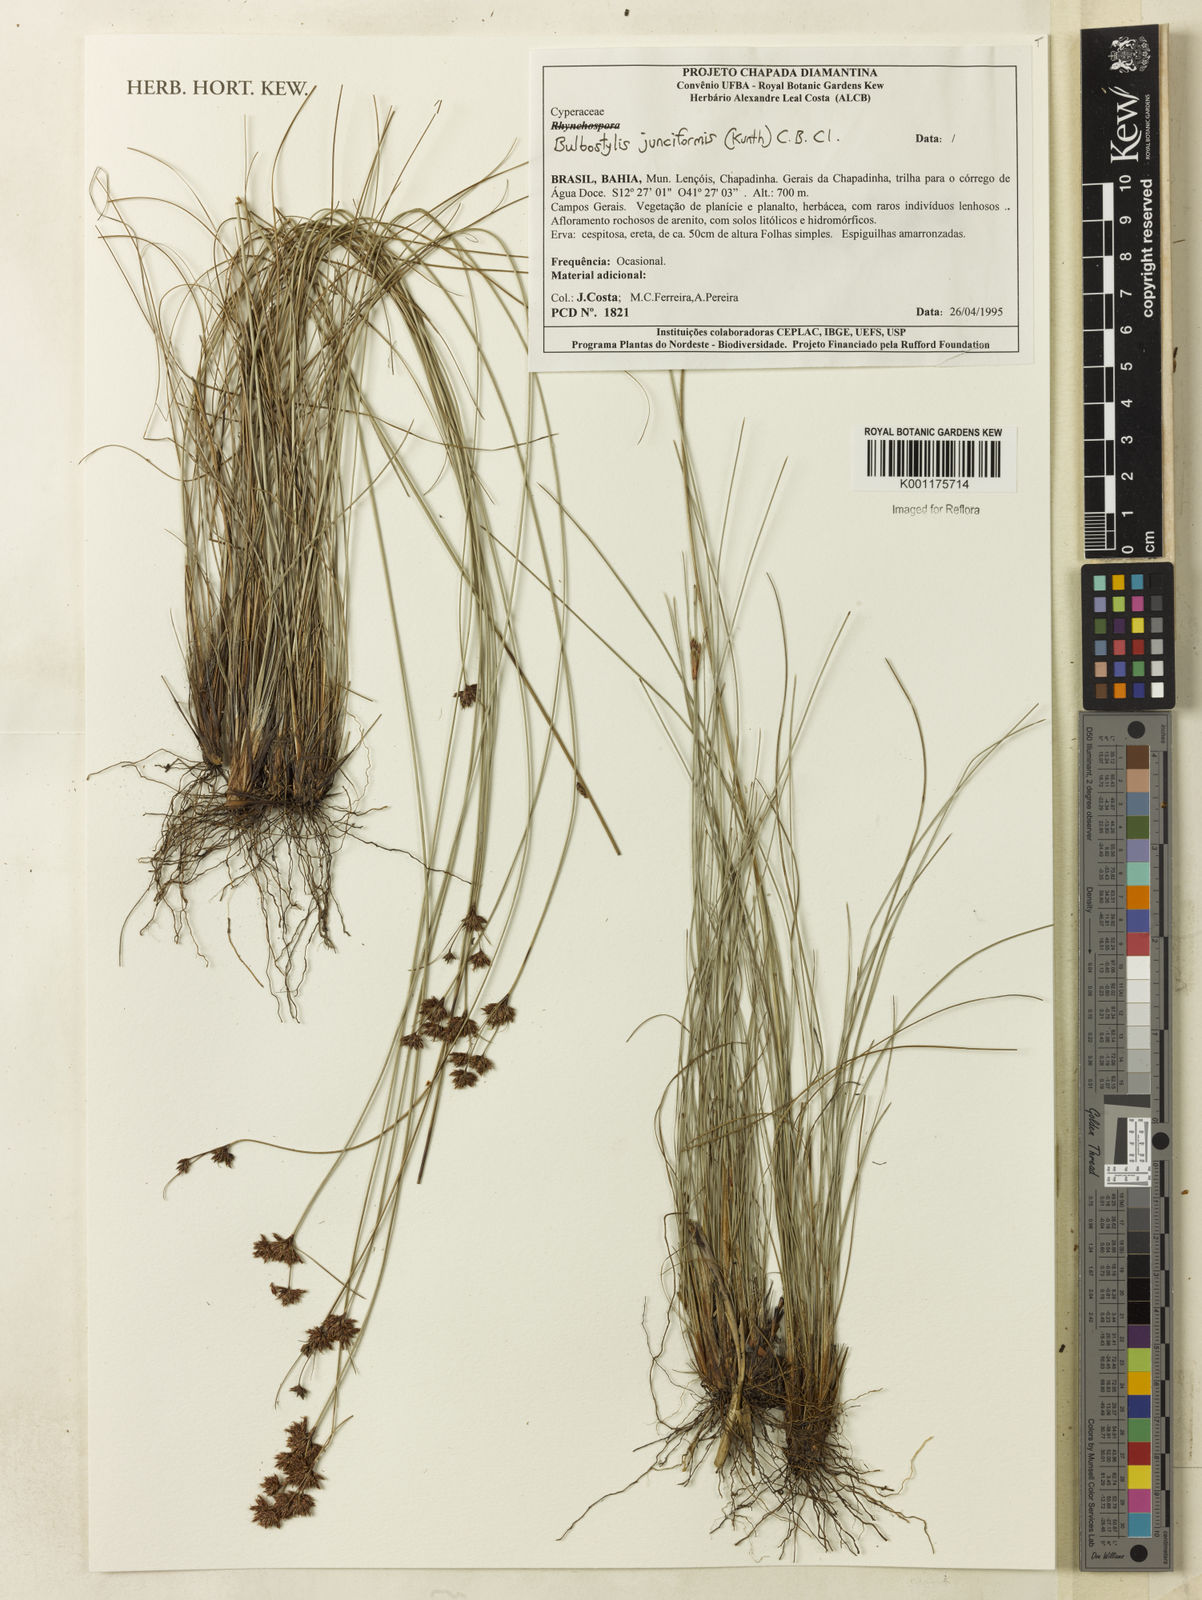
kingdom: Plantae
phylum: Tracheophyta
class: Liliopsida
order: Poales
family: Cyperaceae
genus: Bulbostylis
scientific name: Bulbostylis junciformis
